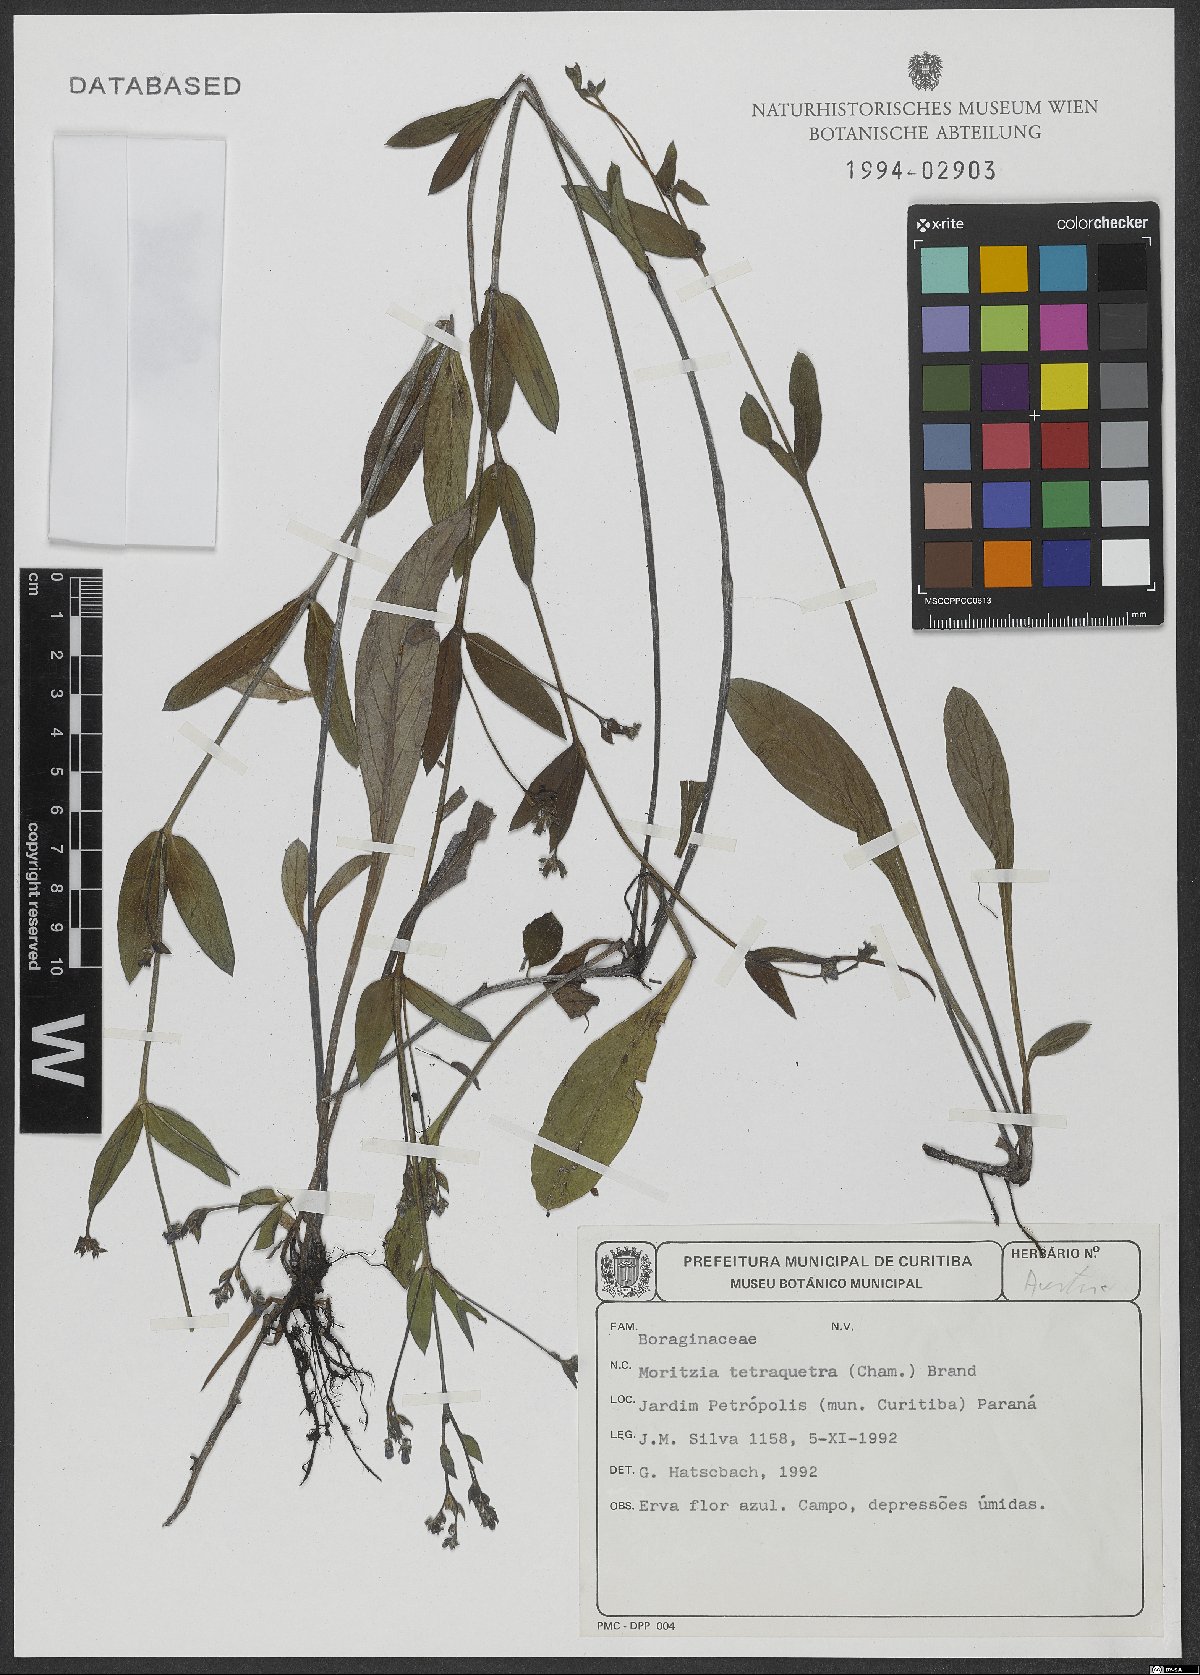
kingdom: Plantae
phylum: Tracheophyta
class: Magnoliopsida
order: Boraginales
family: Boraginaceae
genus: Thaumatocaryon
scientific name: Thaumatocaryon tetraquetrum
